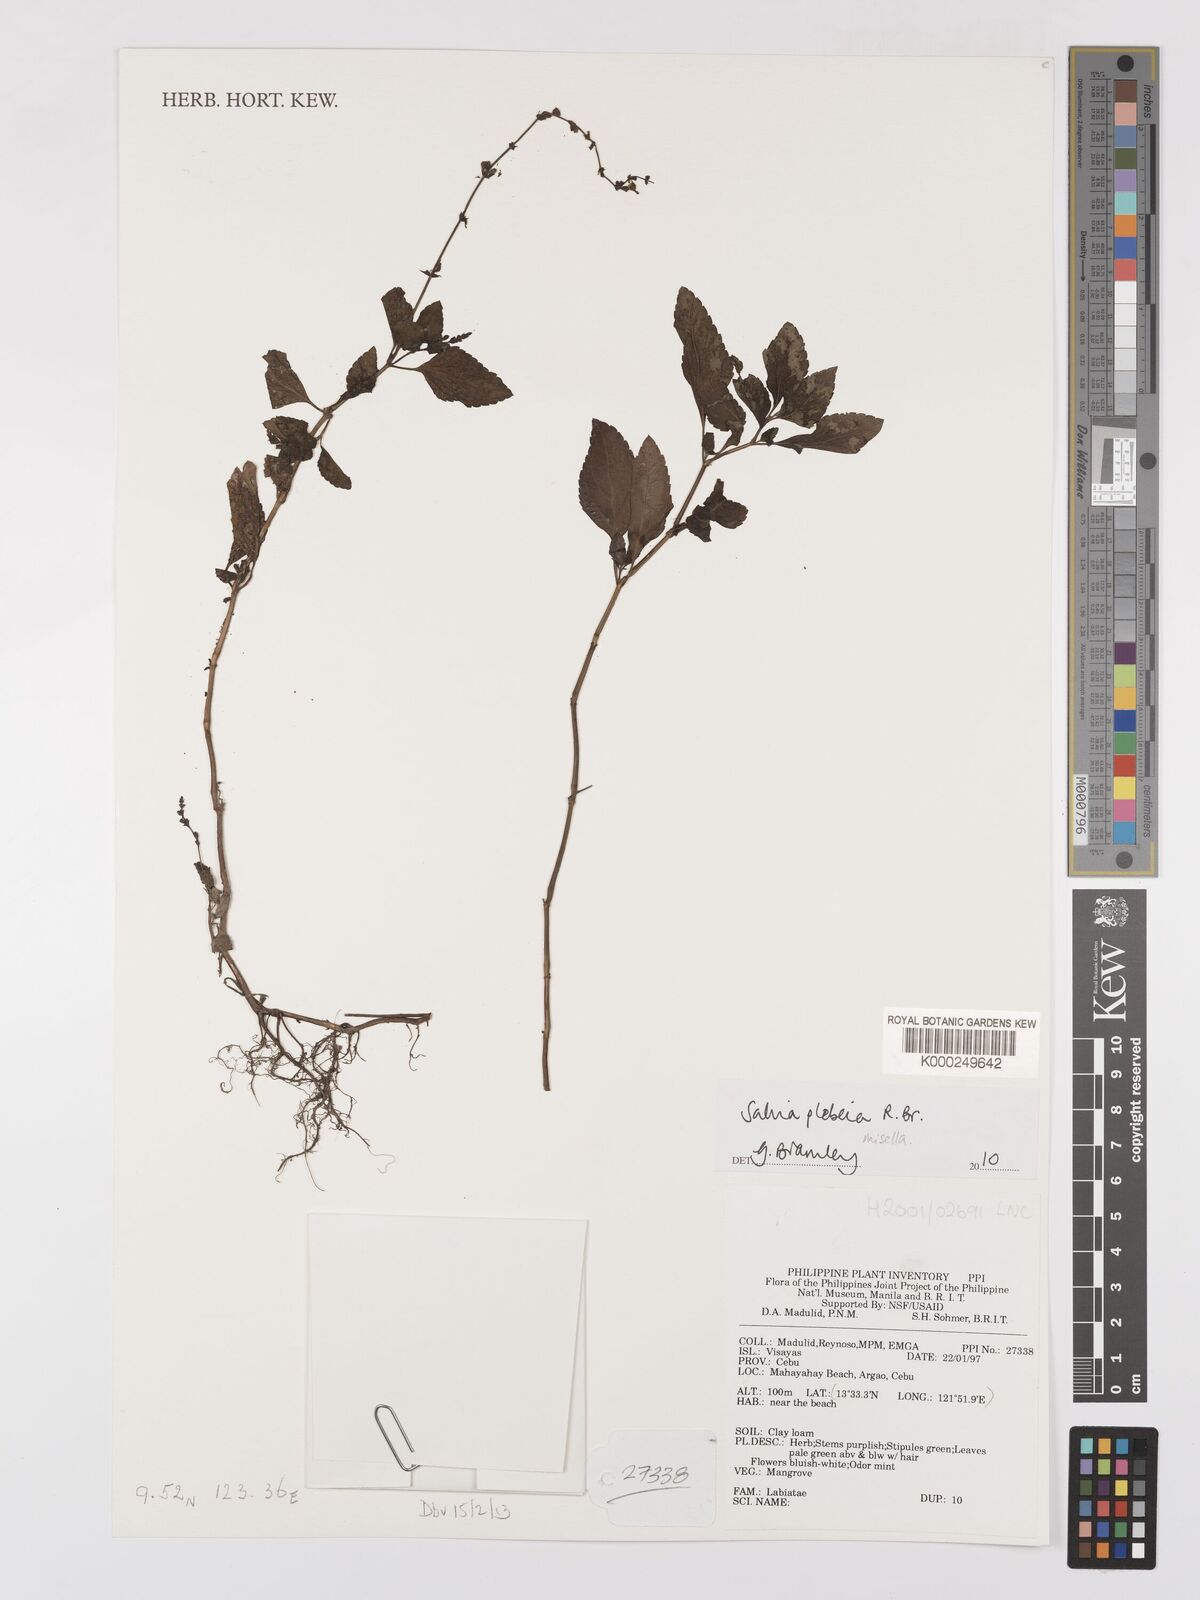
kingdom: Plantae
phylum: Tracheophyta
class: Magnoliopsida
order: Lamiales
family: Lamiaceae
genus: Salvia
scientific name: Salvia
